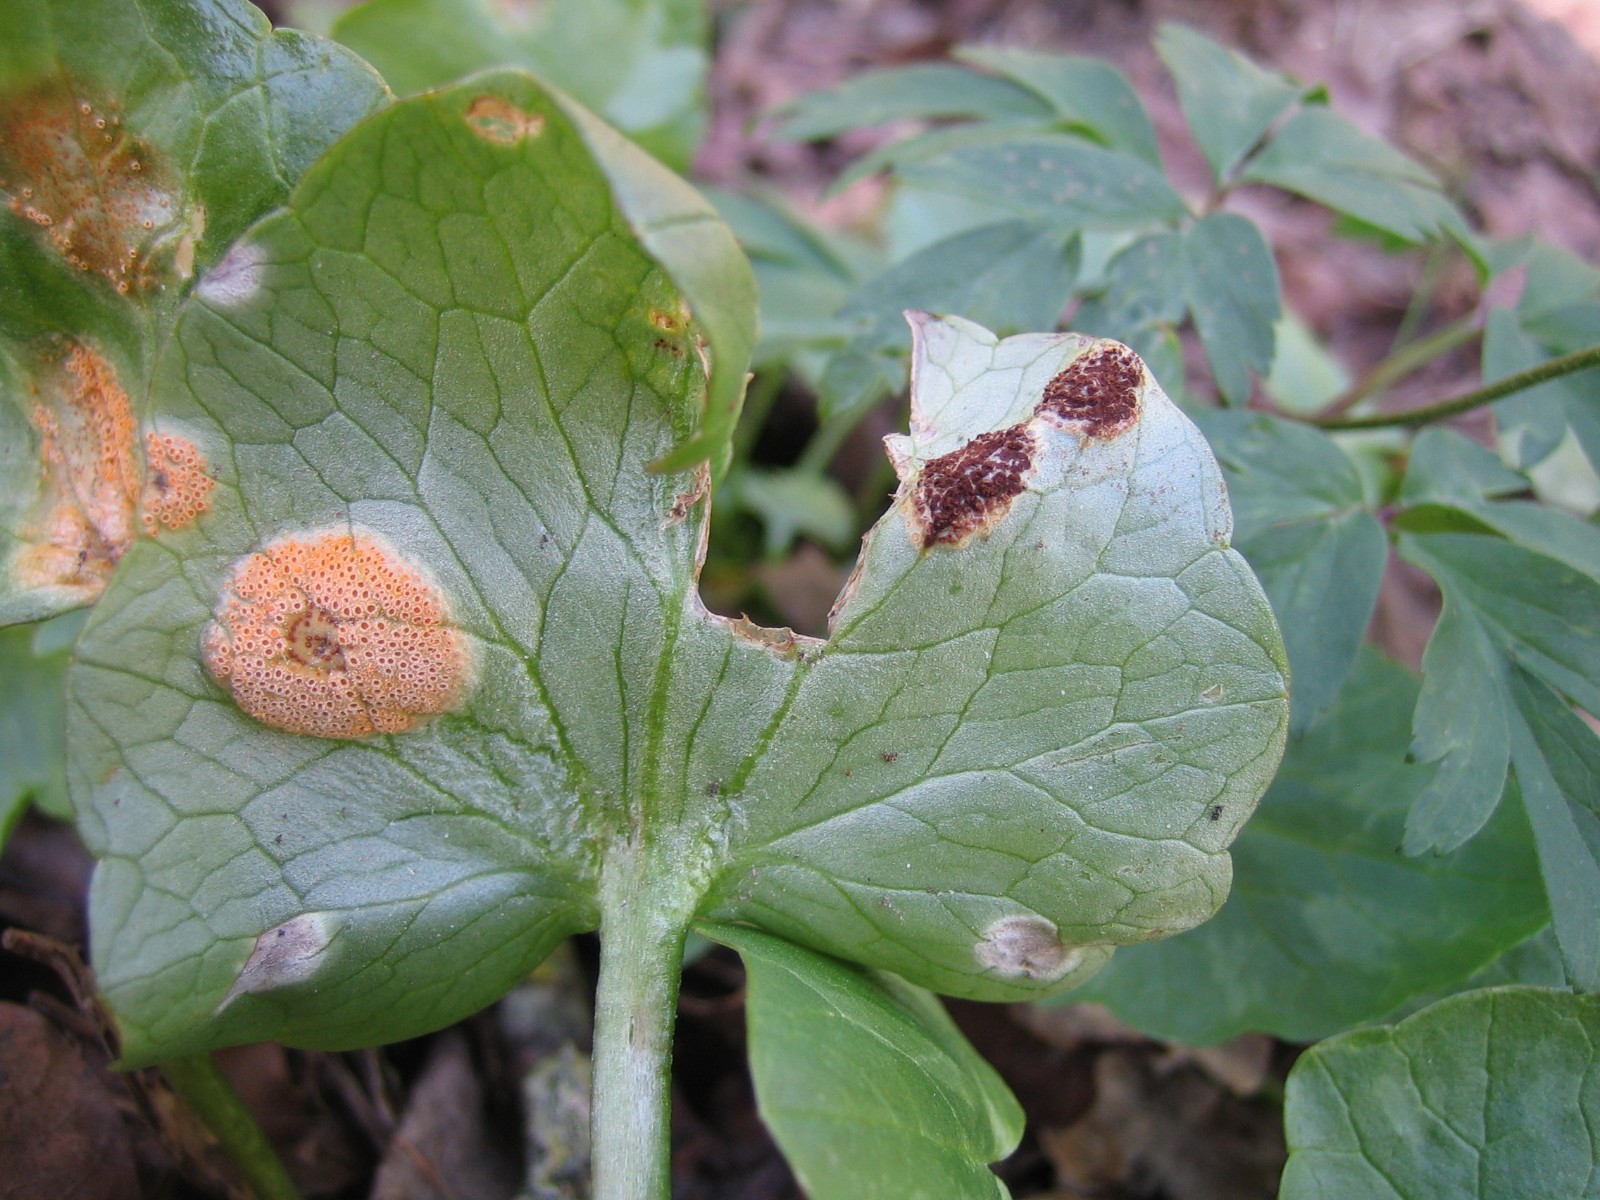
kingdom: Fungi
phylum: Basidiomycota
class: Pucciniomycetes
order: Pucciniales
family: Pucciniaceae
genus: Uromyces
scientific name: Uromyces ficariae
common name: vorterod-encellerust
